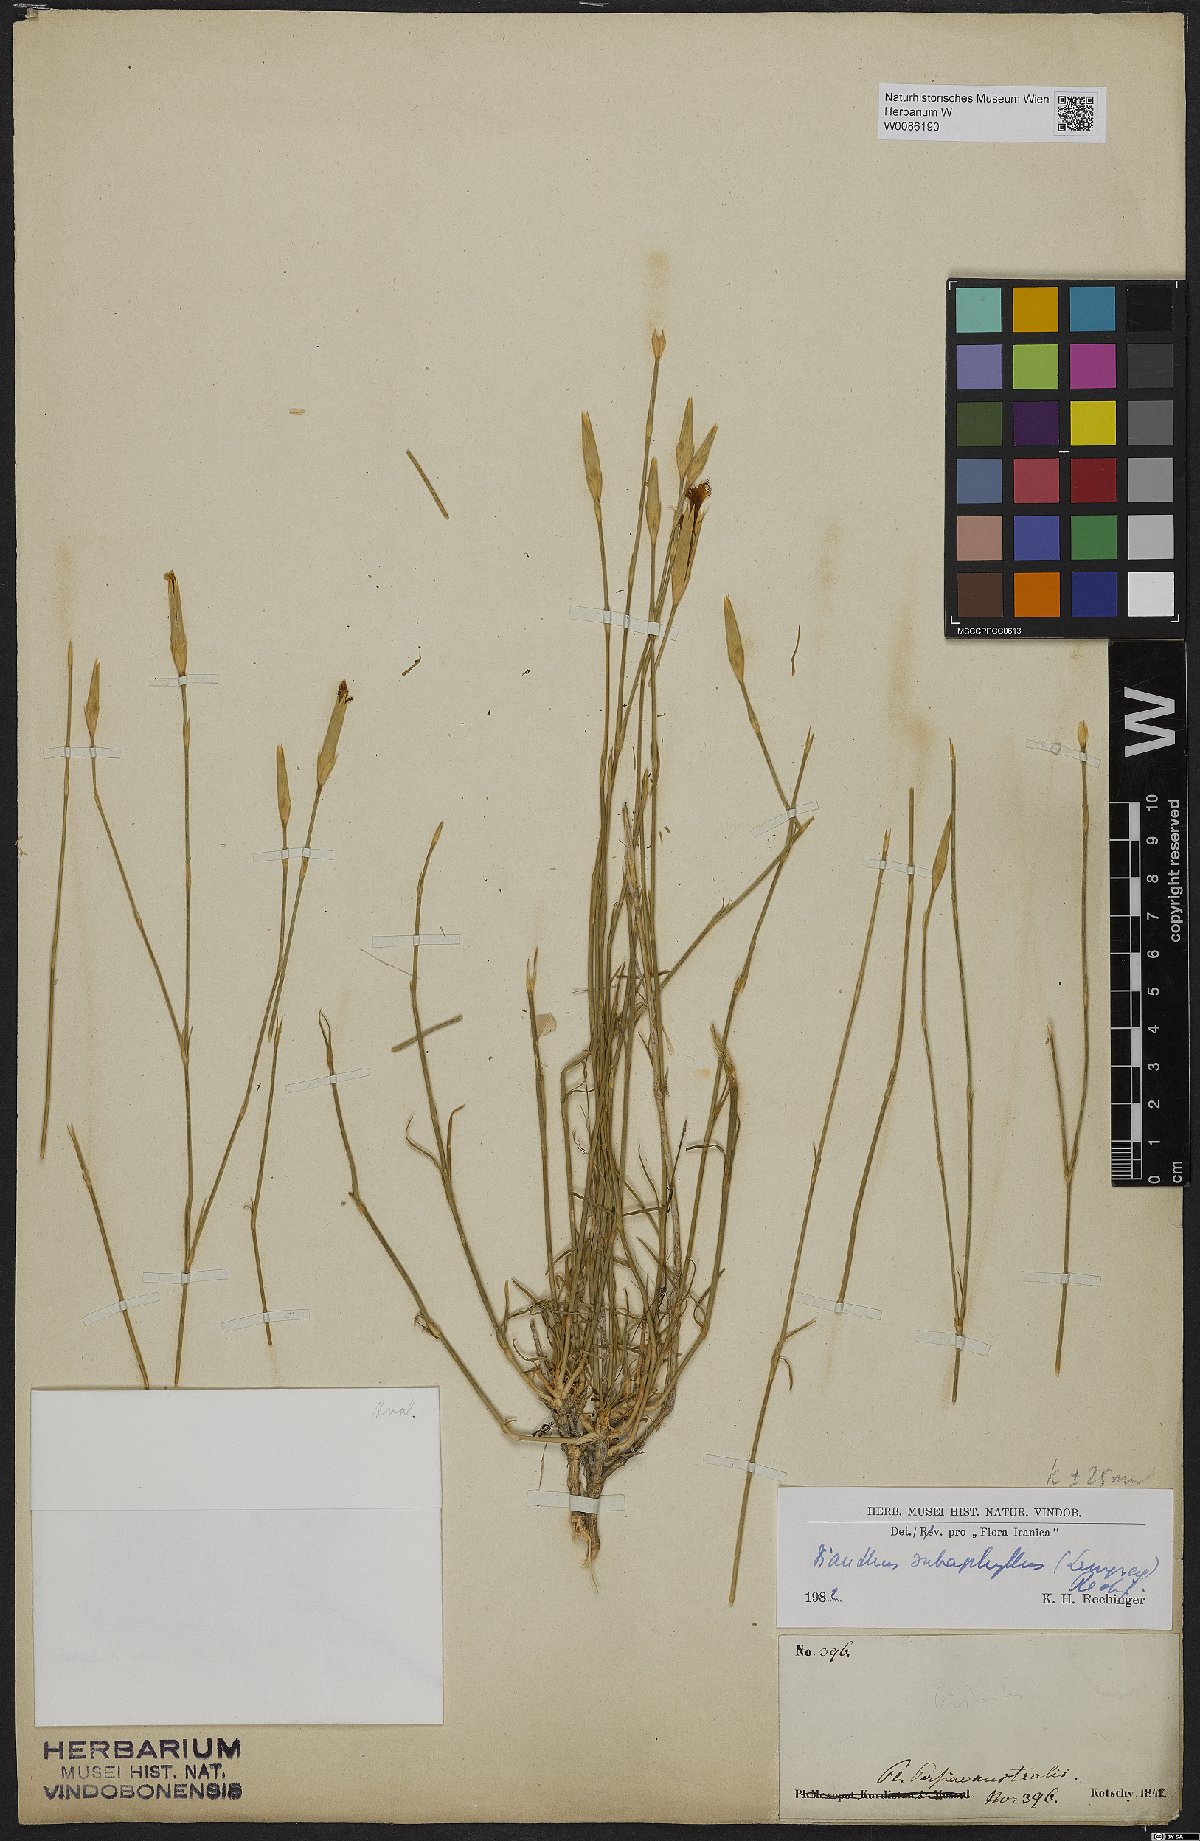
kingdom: Plantae
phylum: Tracheophyta
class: Magnoliopsida
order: Caryophyllales
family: Caryophyllaceae
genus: Dianthus
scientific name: Dianthus subaphyllus
